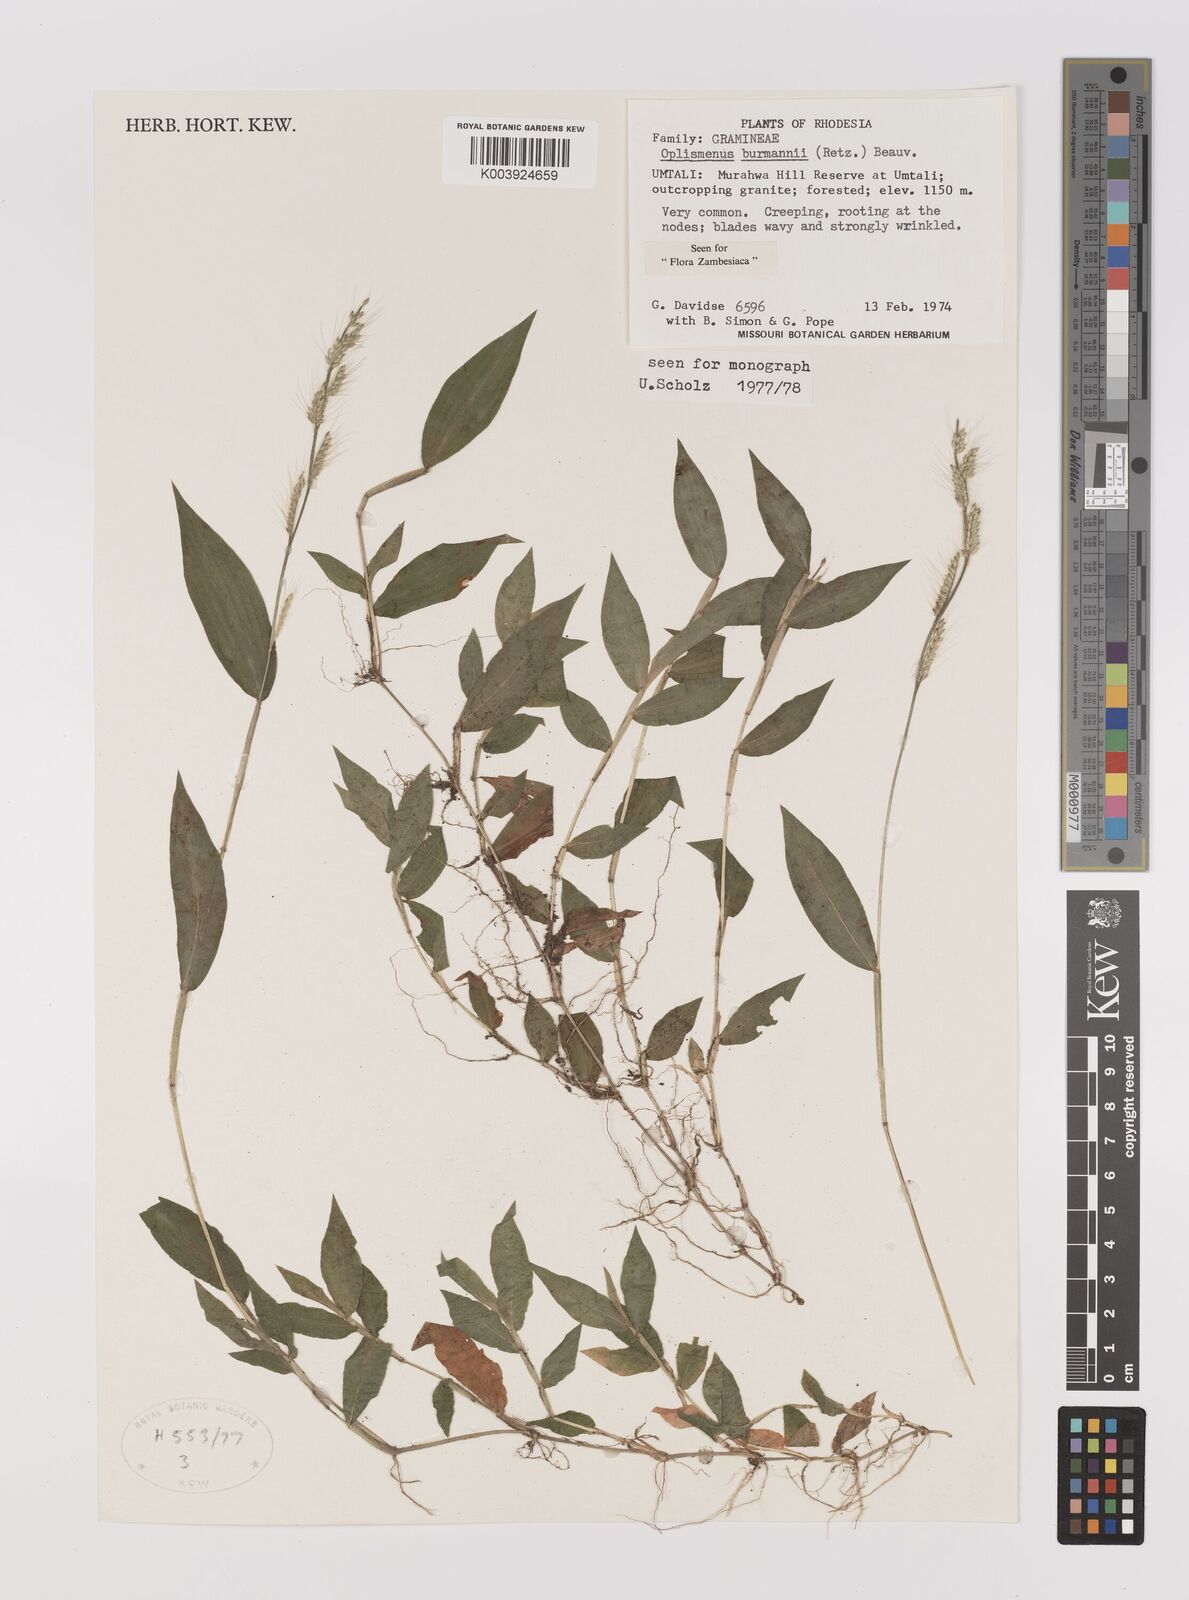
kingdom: Plantae
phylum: Tracheophyta
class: Liliopsida
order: Poales
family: Poaceae
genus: Oplismenus
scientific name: Oplismenus burmanni
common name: Burmann's basketgrass
